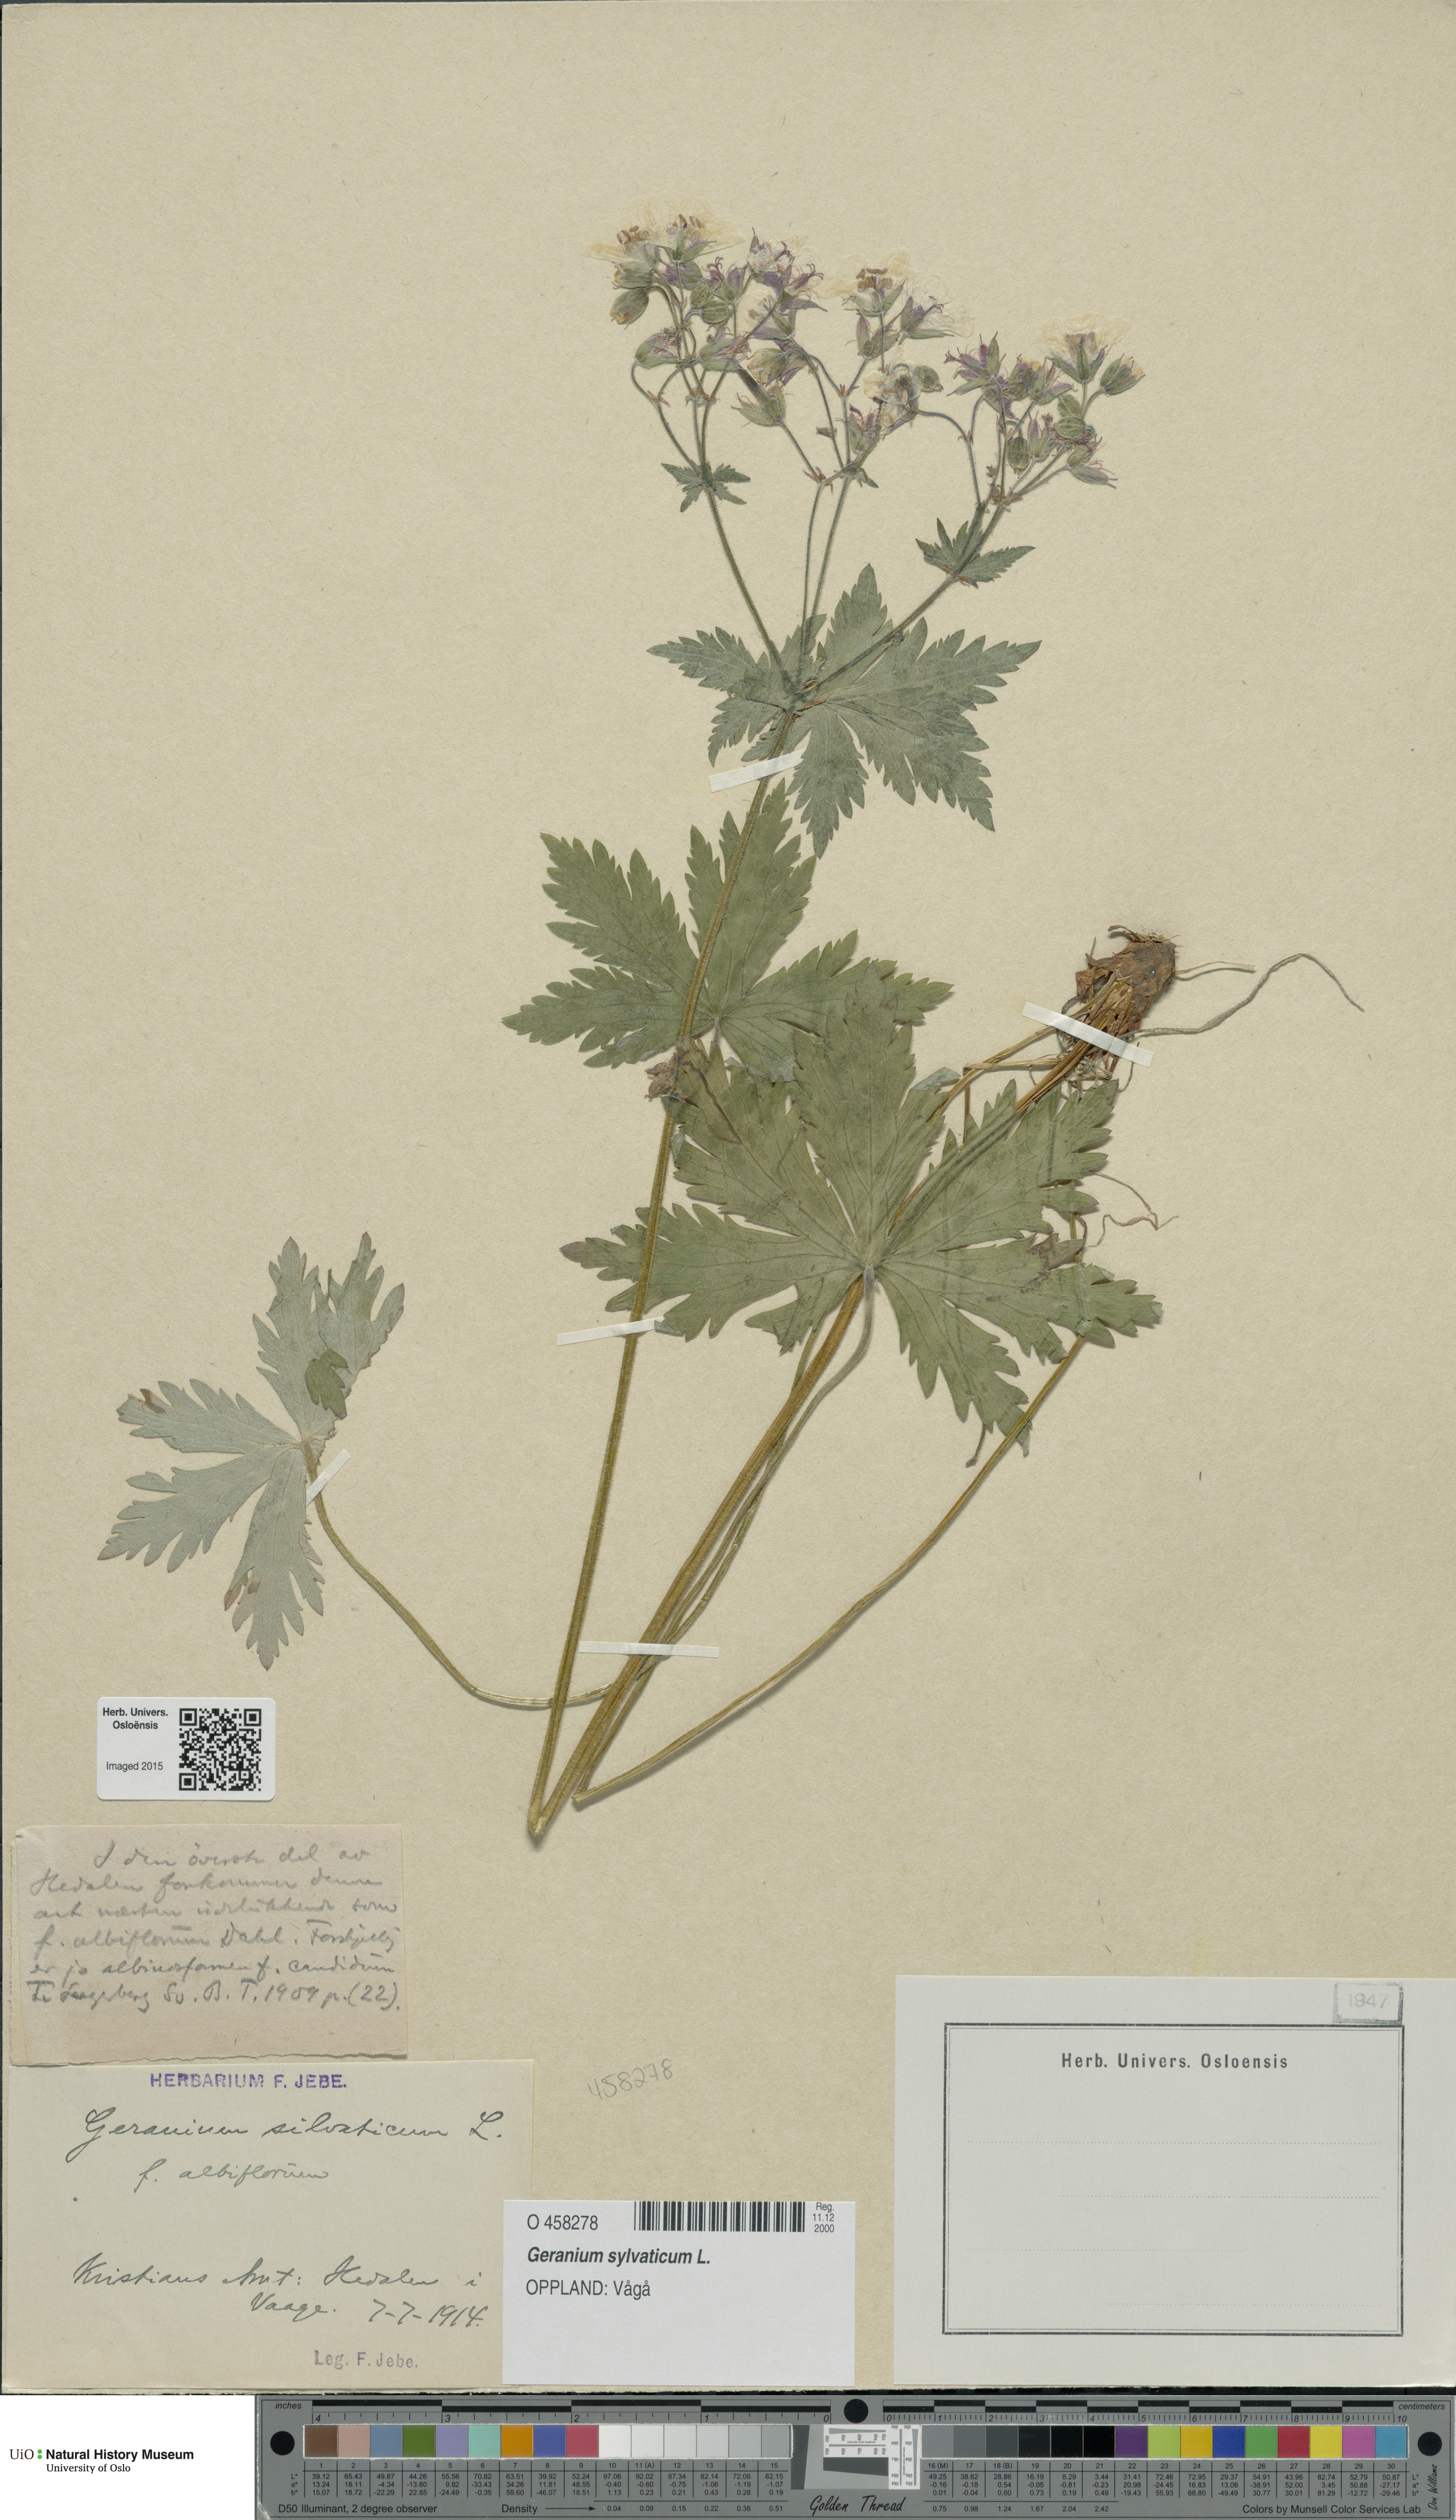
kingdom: Plantae
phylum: Tracheophyta
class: Magnoliopsida
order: Geraniales
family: Geraniaceae
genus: Geranium
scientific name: Geranium sylvaticum
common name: Wood crane's-bill
